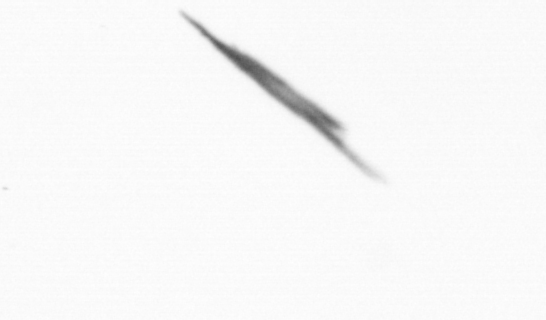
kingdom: Bacteria
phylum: Cyanobacteria
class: Cyanobacteriia
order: Cyanobacteriales
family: Microcoleaceae
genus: Trichodesmium
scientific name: Trichodesmium
